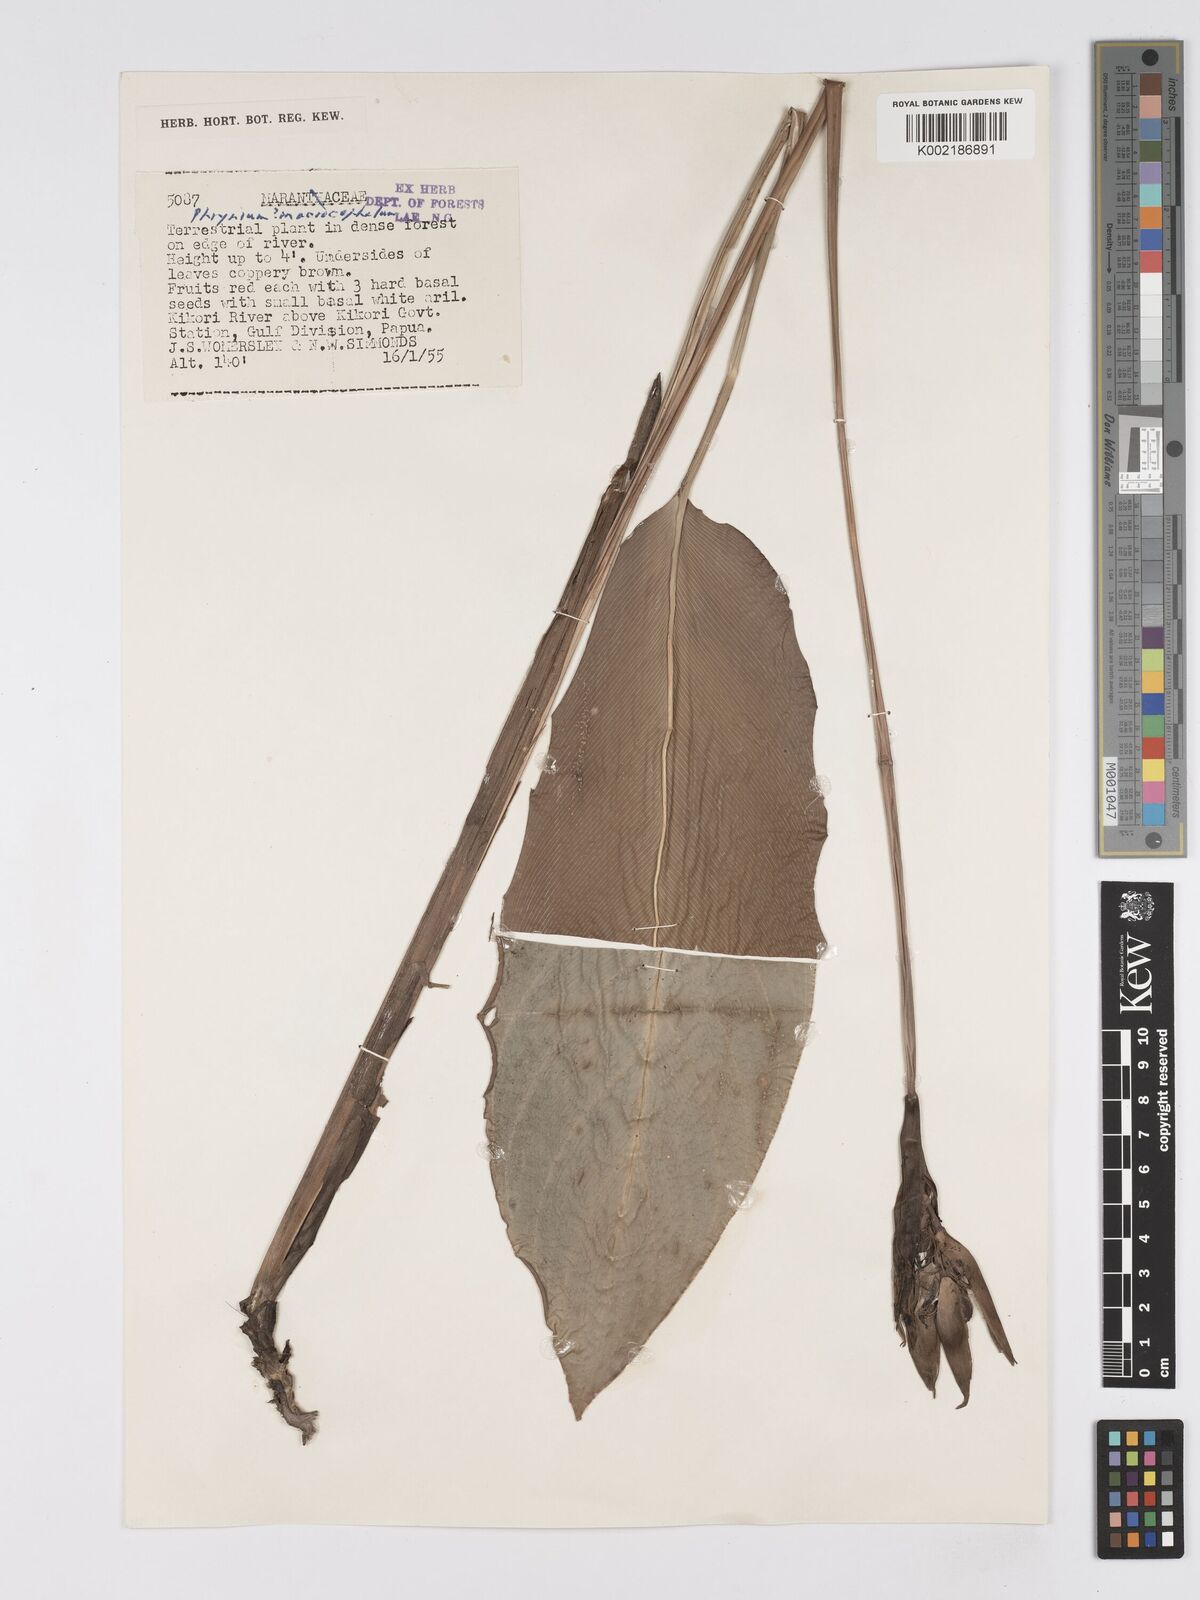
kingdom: Plantae
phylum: Tracheophyta
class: Liliopsida
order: Zingiberales
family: Marantaceae
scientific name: Marantaceae
